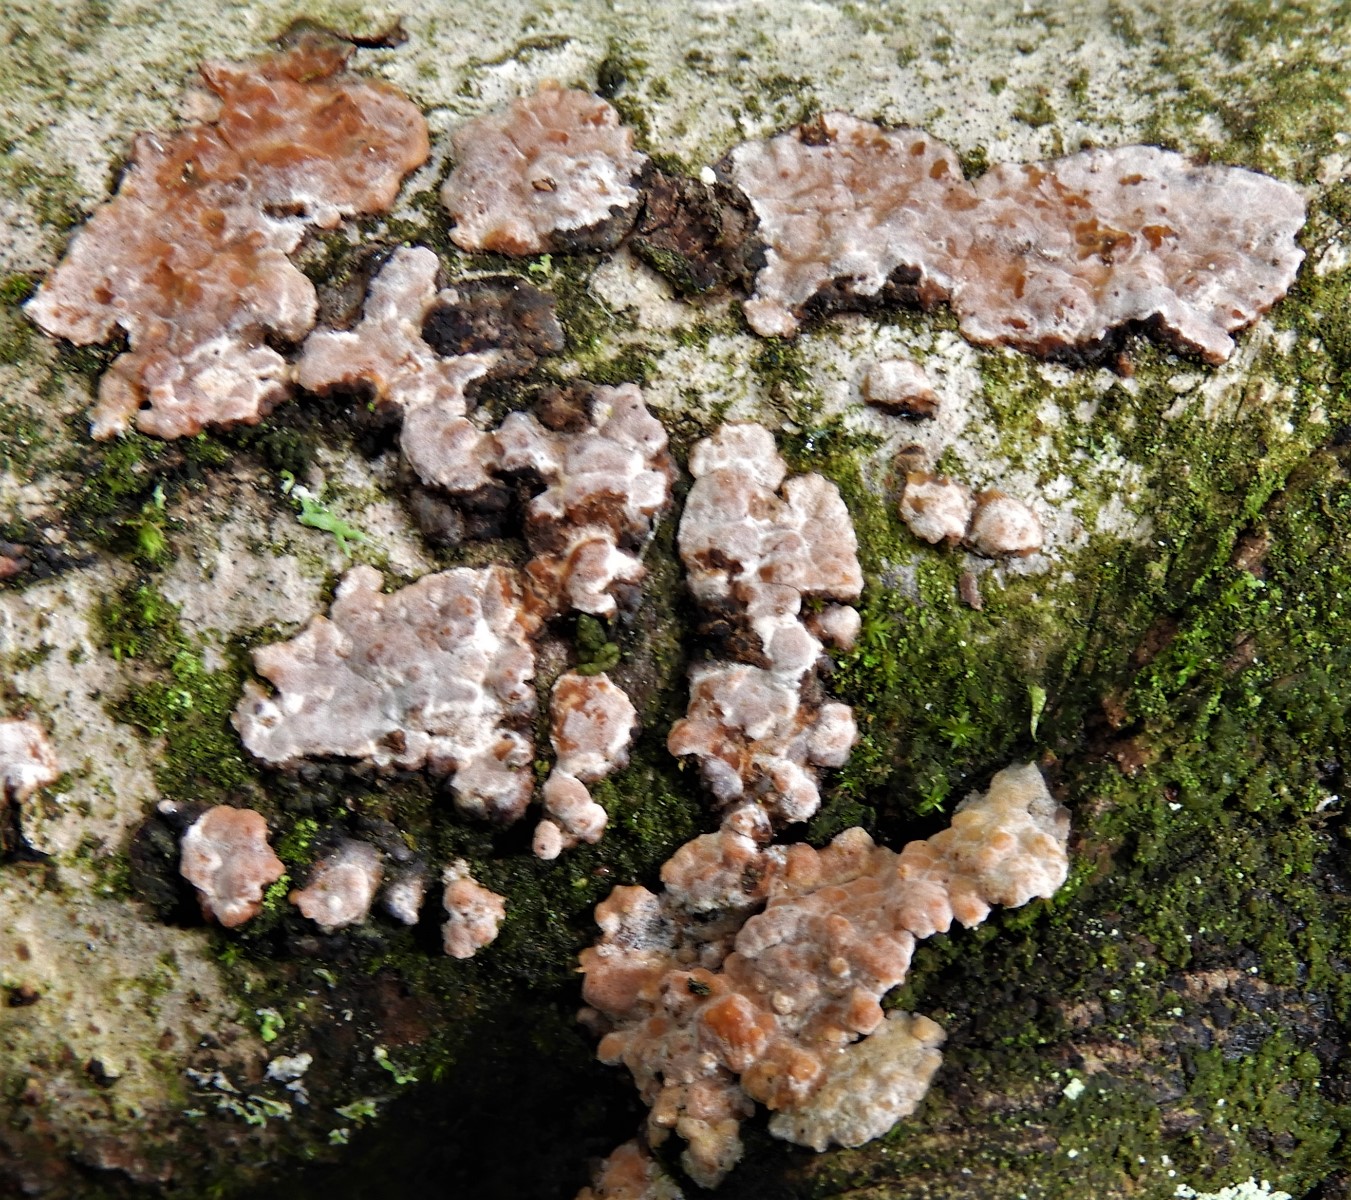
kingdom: Fungi
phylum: Basidiomycota
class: Agaricomycetes
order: Russulales
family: Peniophoraceae
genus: Peniophora
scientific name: Peniophora polygonia
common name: polygon-voksskind
